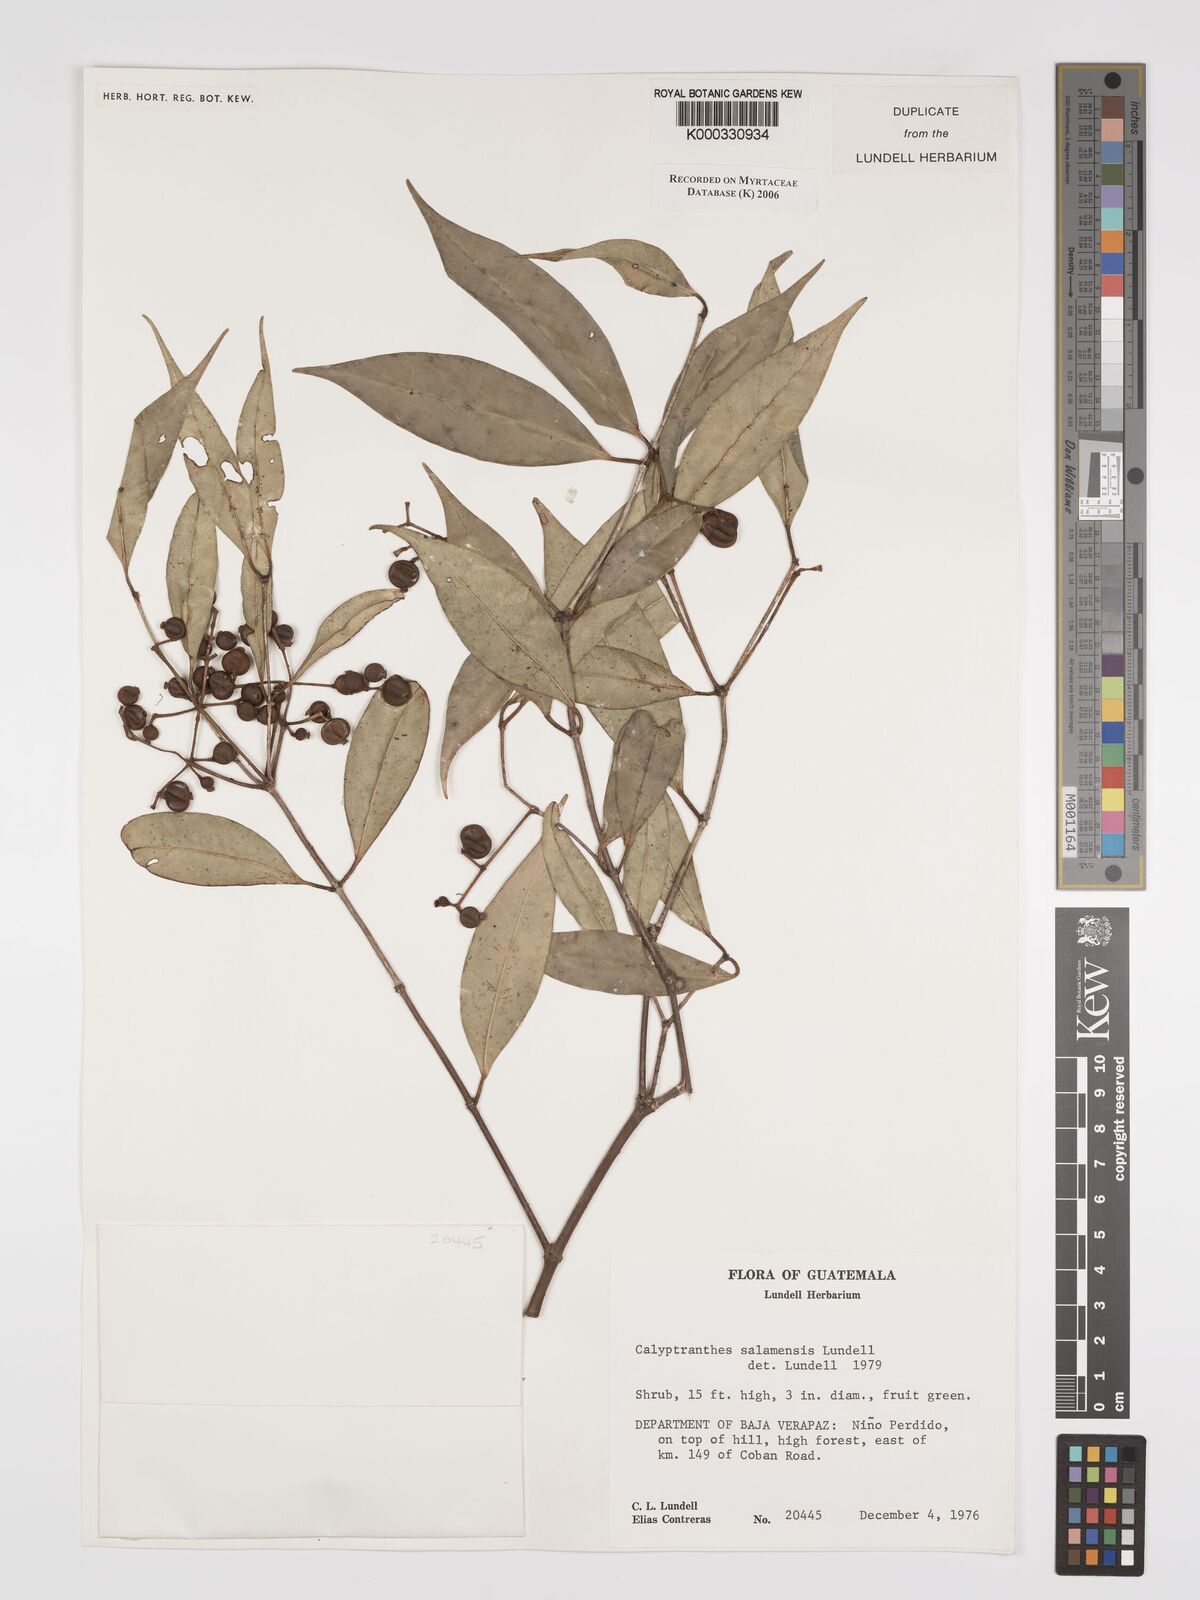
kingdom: Plantae
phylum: Tracheophyta
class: Magnoliopsida
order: Myrtales
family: Myrtaceae
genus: Myrcia
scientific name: Myrcia salamensis
